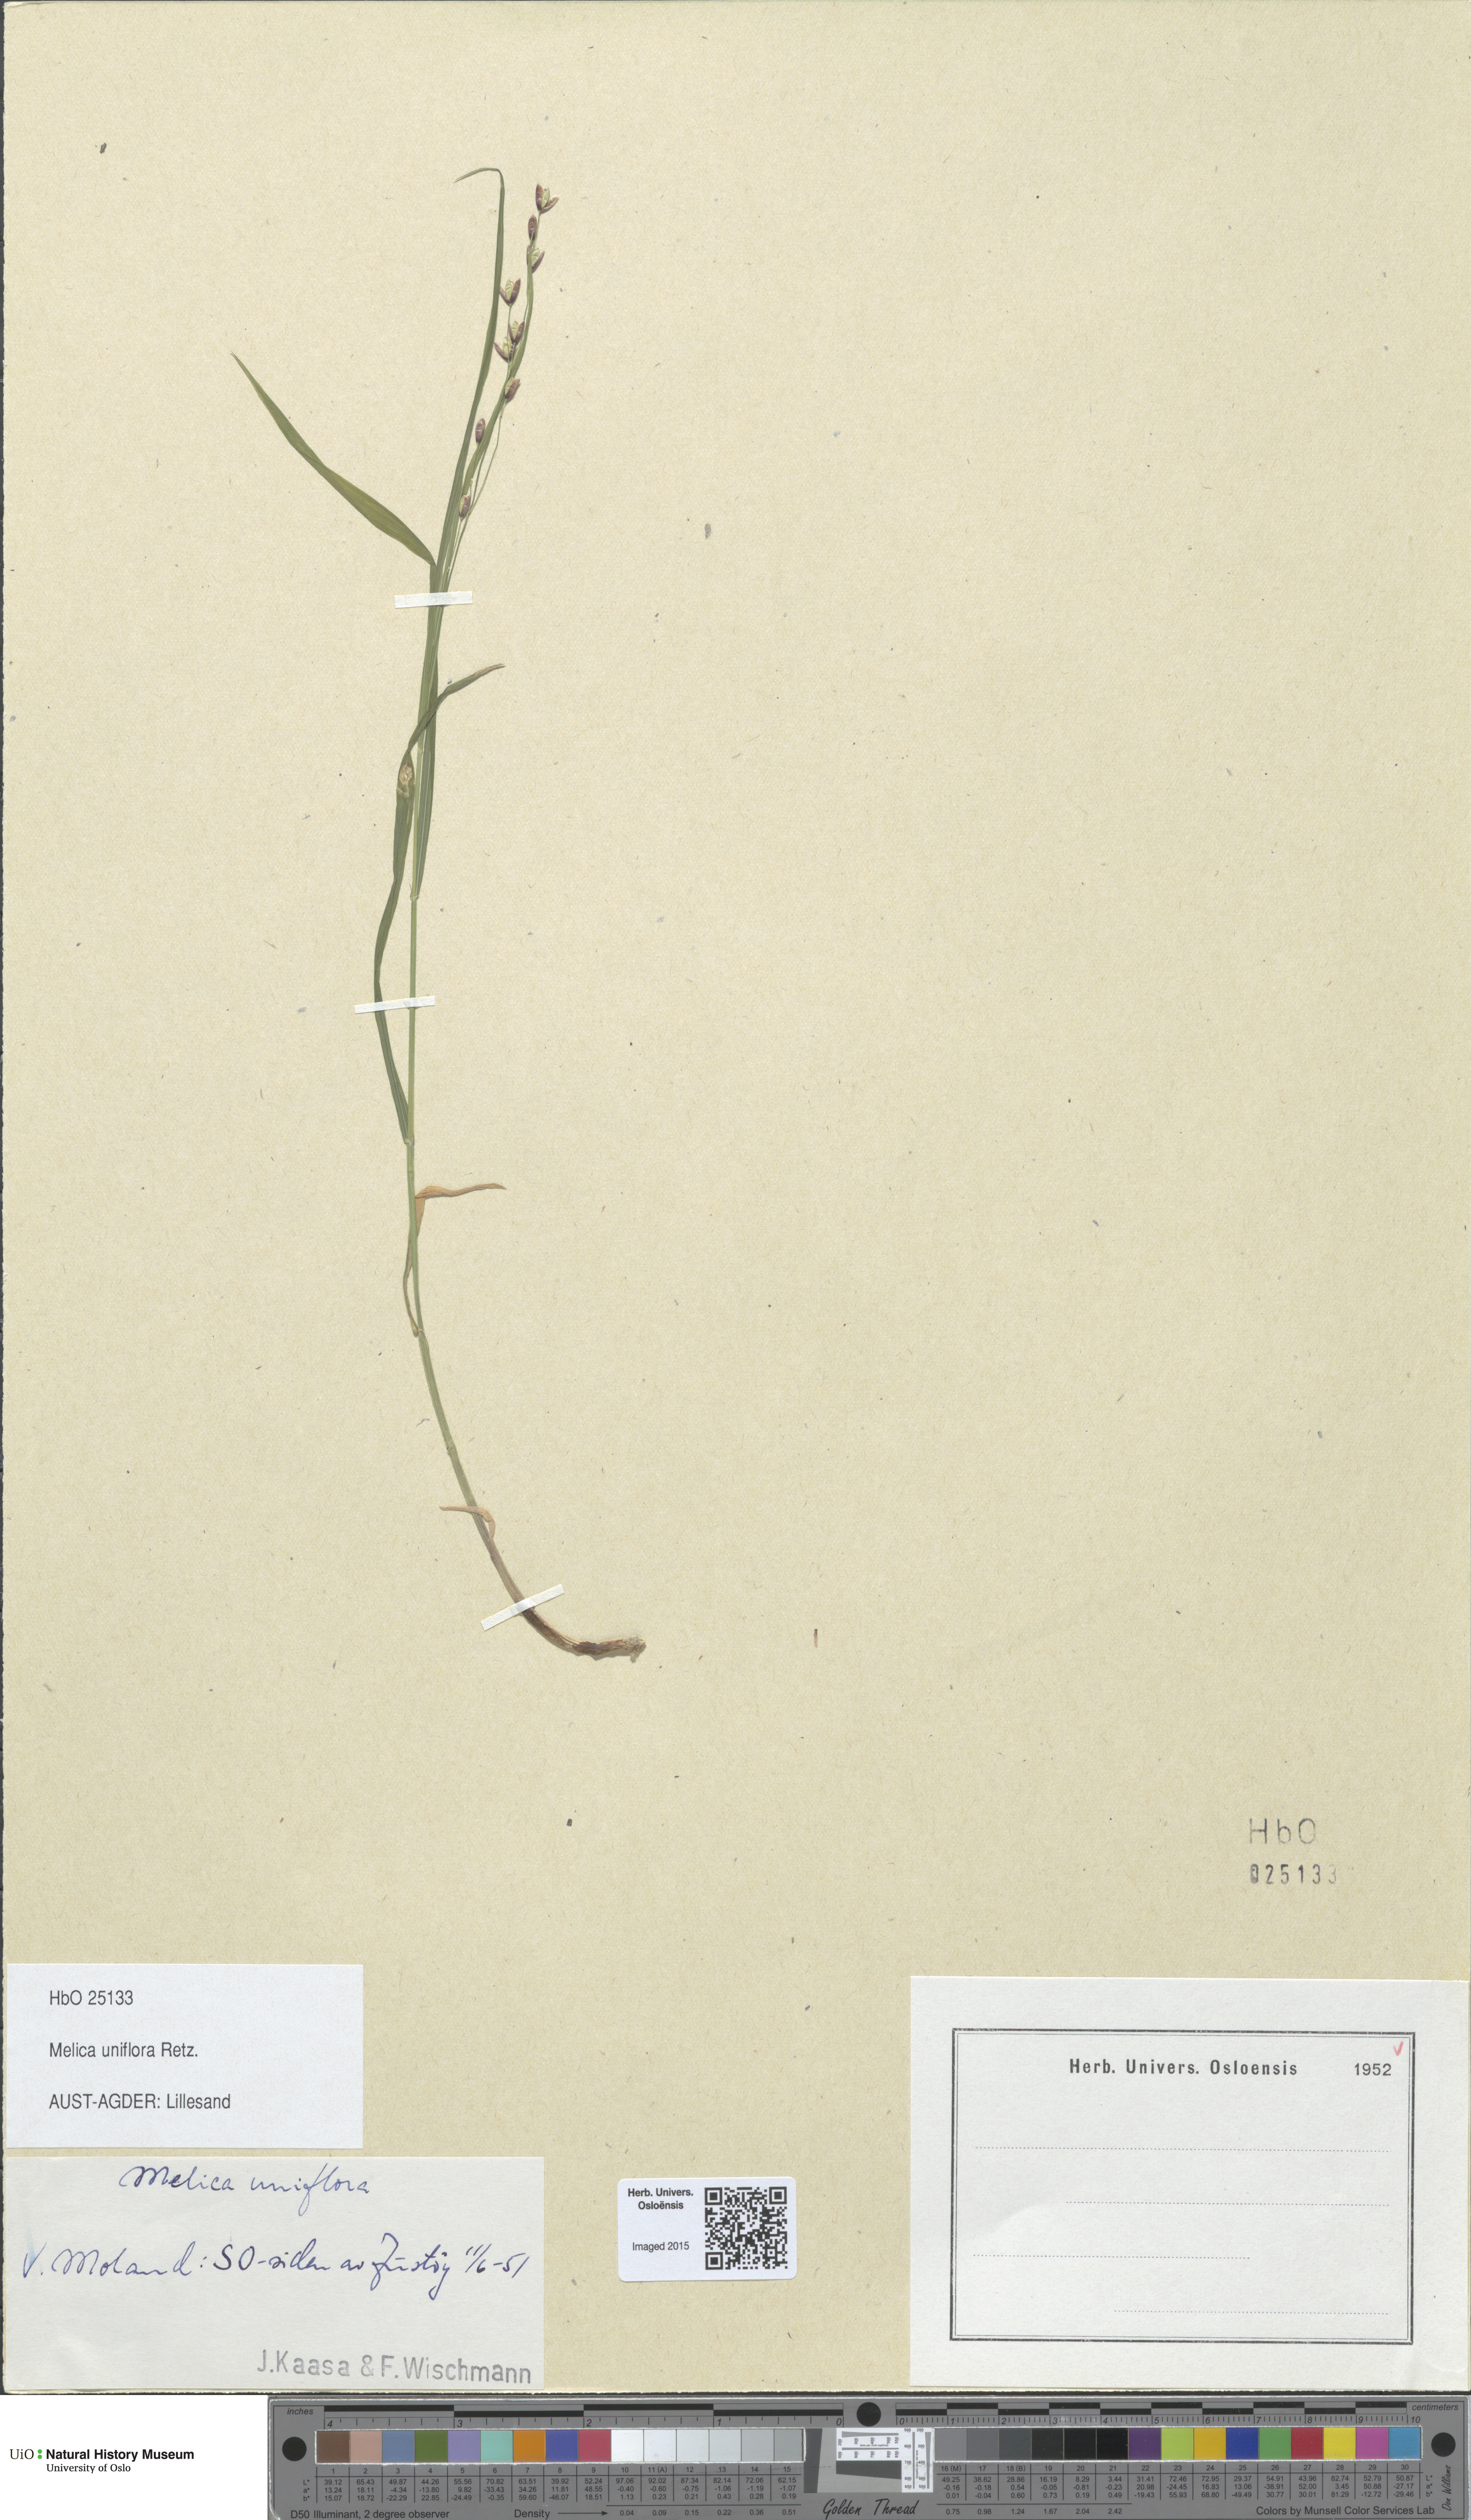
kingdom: Plantae
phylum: Tracheophyta
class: Liliopsida
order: Poales
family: Poaceae
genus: Melica
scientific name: Melica uniflora
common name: Wood melick
